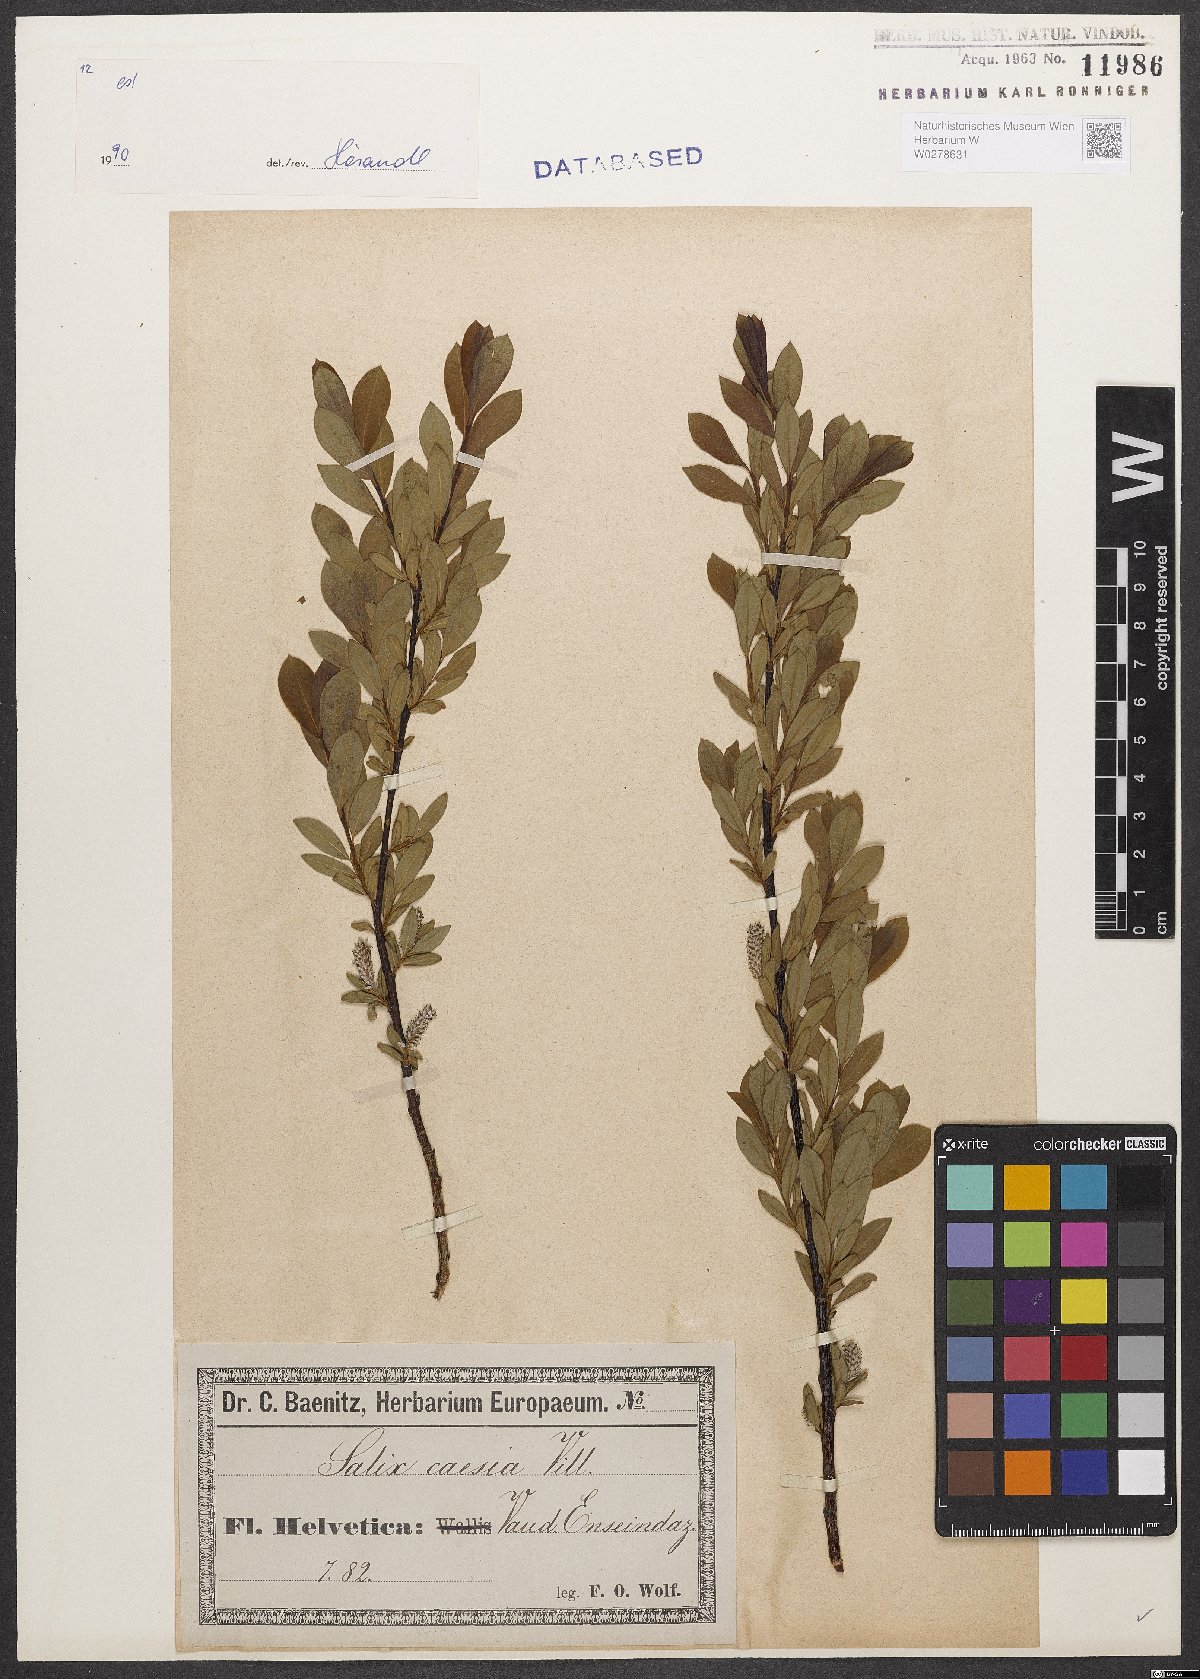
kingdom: Plantae
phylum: Tracheophyta
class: Magnoliopsida
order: Malpighiales
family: Salicaceae
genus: Salix
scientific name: Salix caesia
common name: Blue willow
